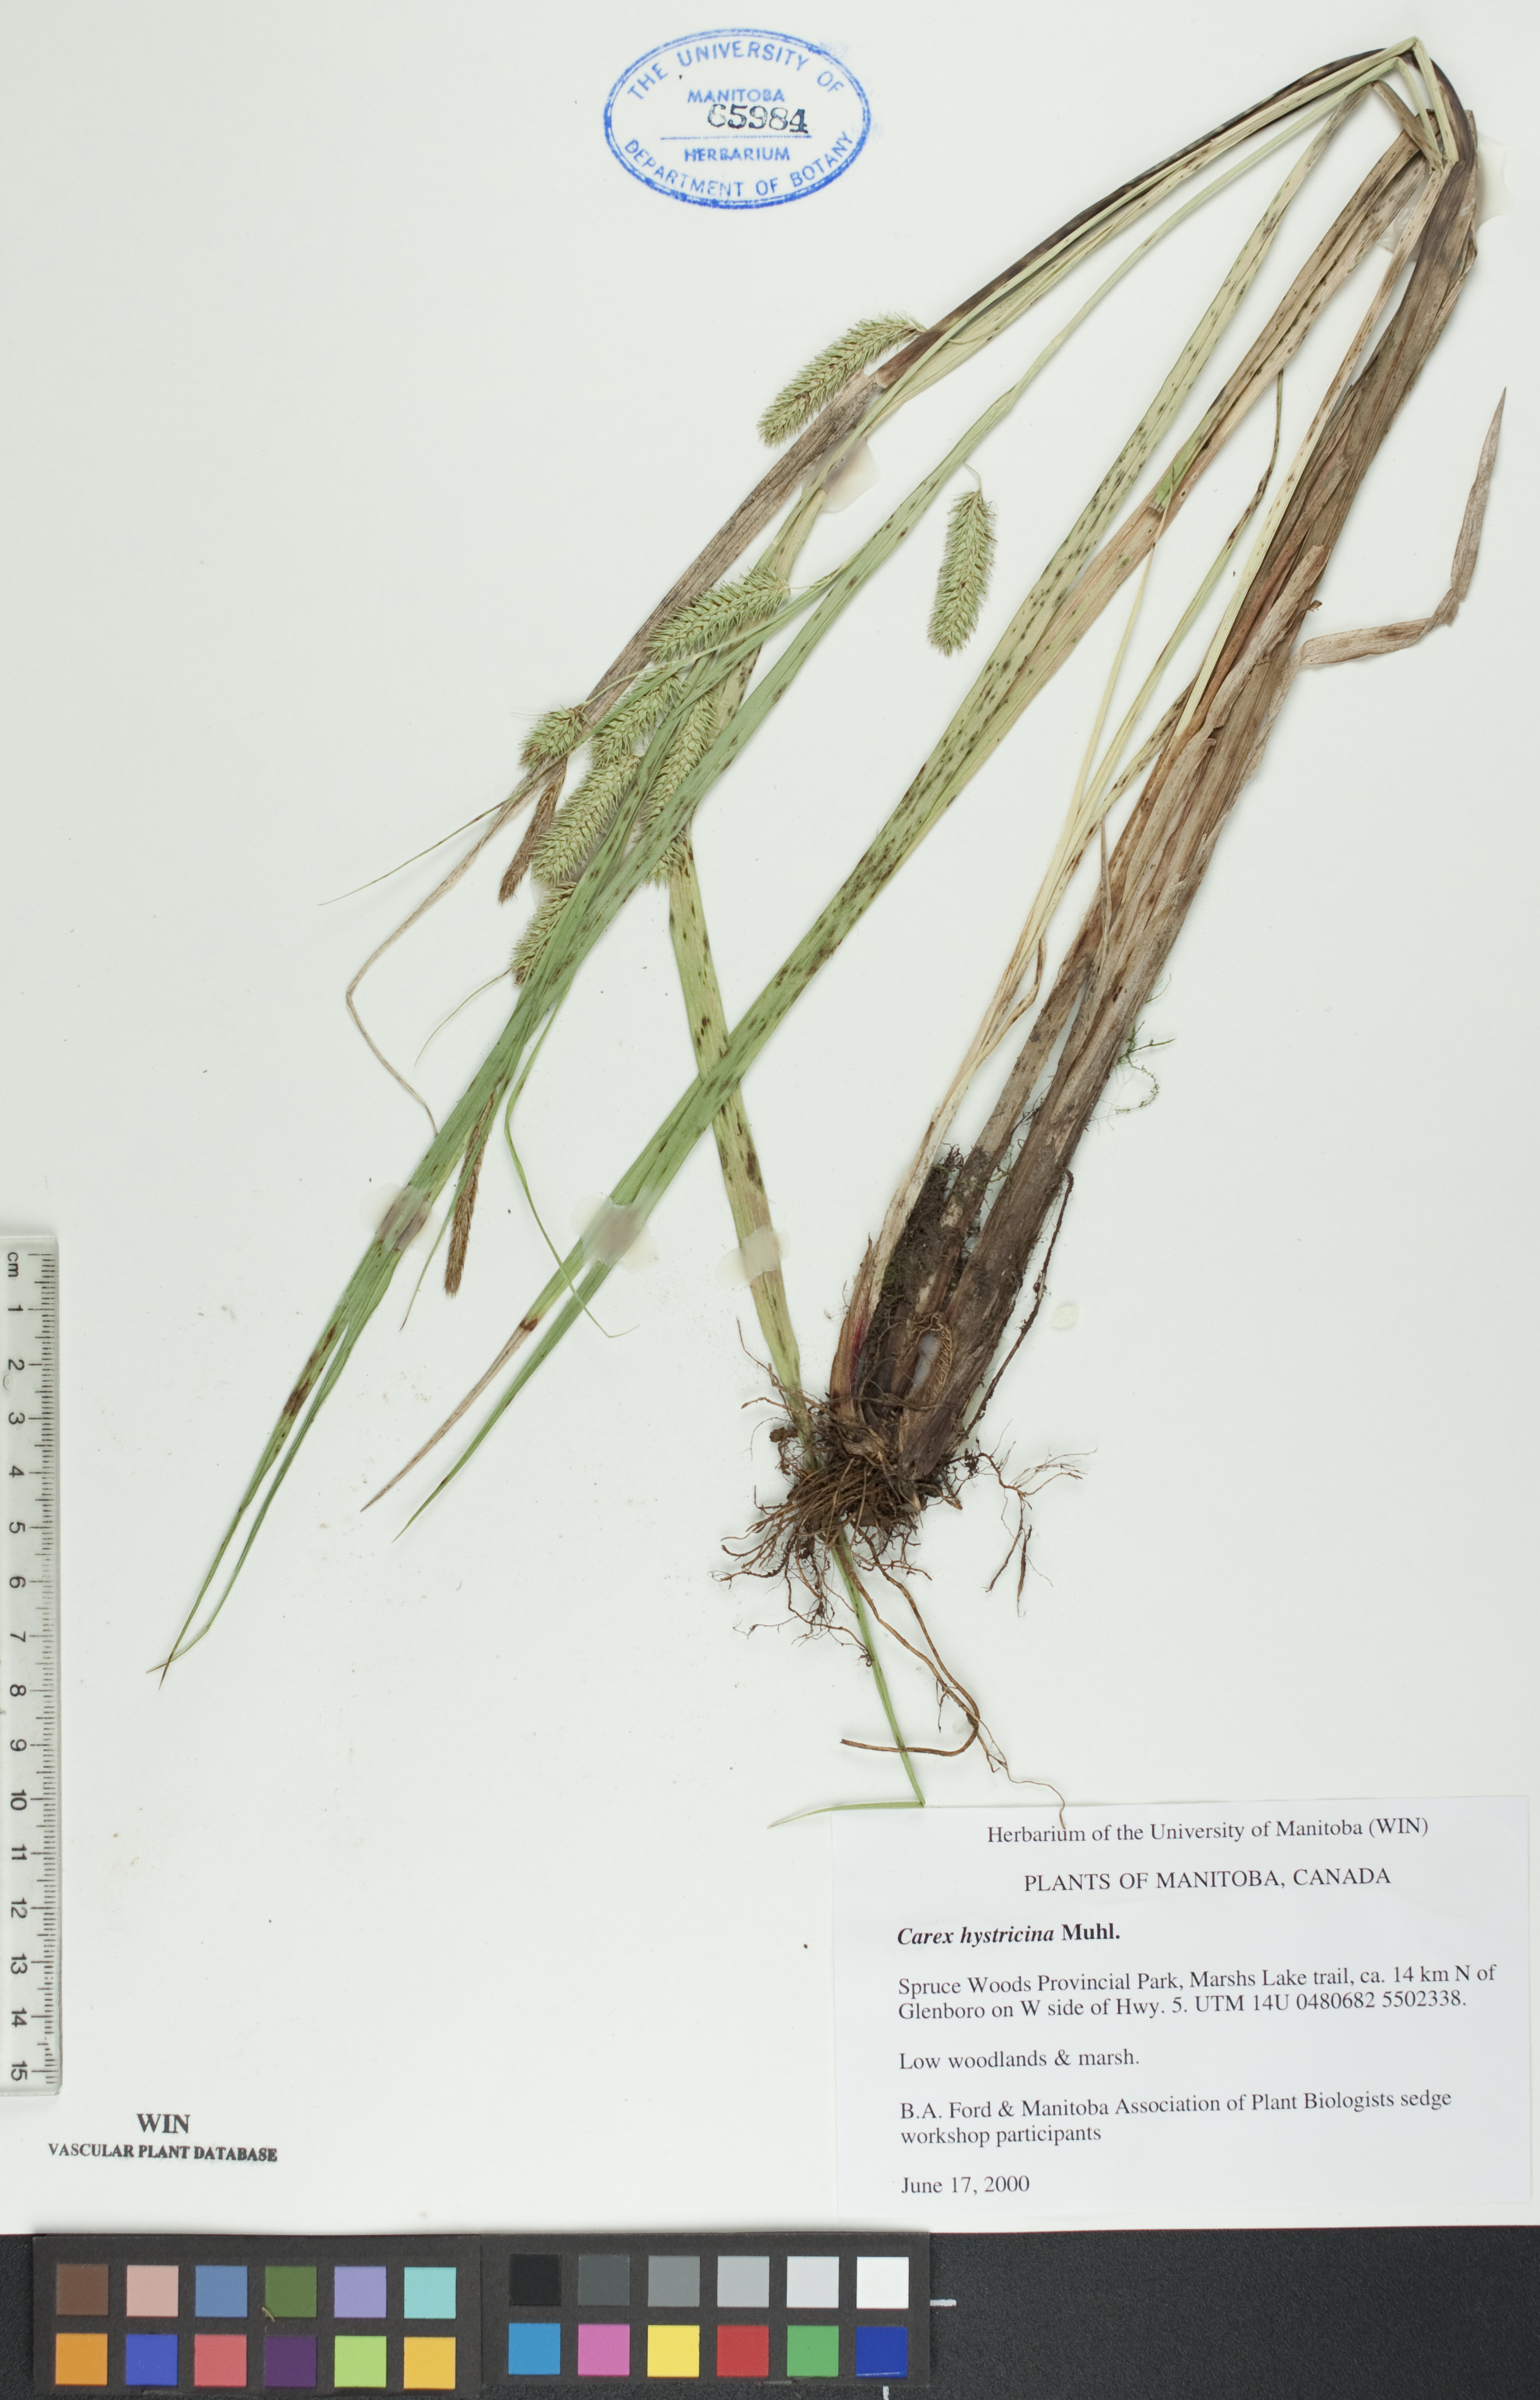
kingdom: Plantae
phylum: Tracheophyta
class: Liliopsida
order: Poales
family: Cyperaceae
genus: Carex
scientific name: Carex hystericina
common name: Bottlebrush sedge
